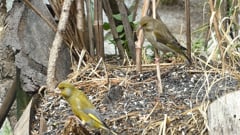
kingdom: Plantae
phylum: Tracheophyta
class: Liliopsida
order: Poales
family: Poaceae
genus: Chloris
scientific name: Chloris chloris
